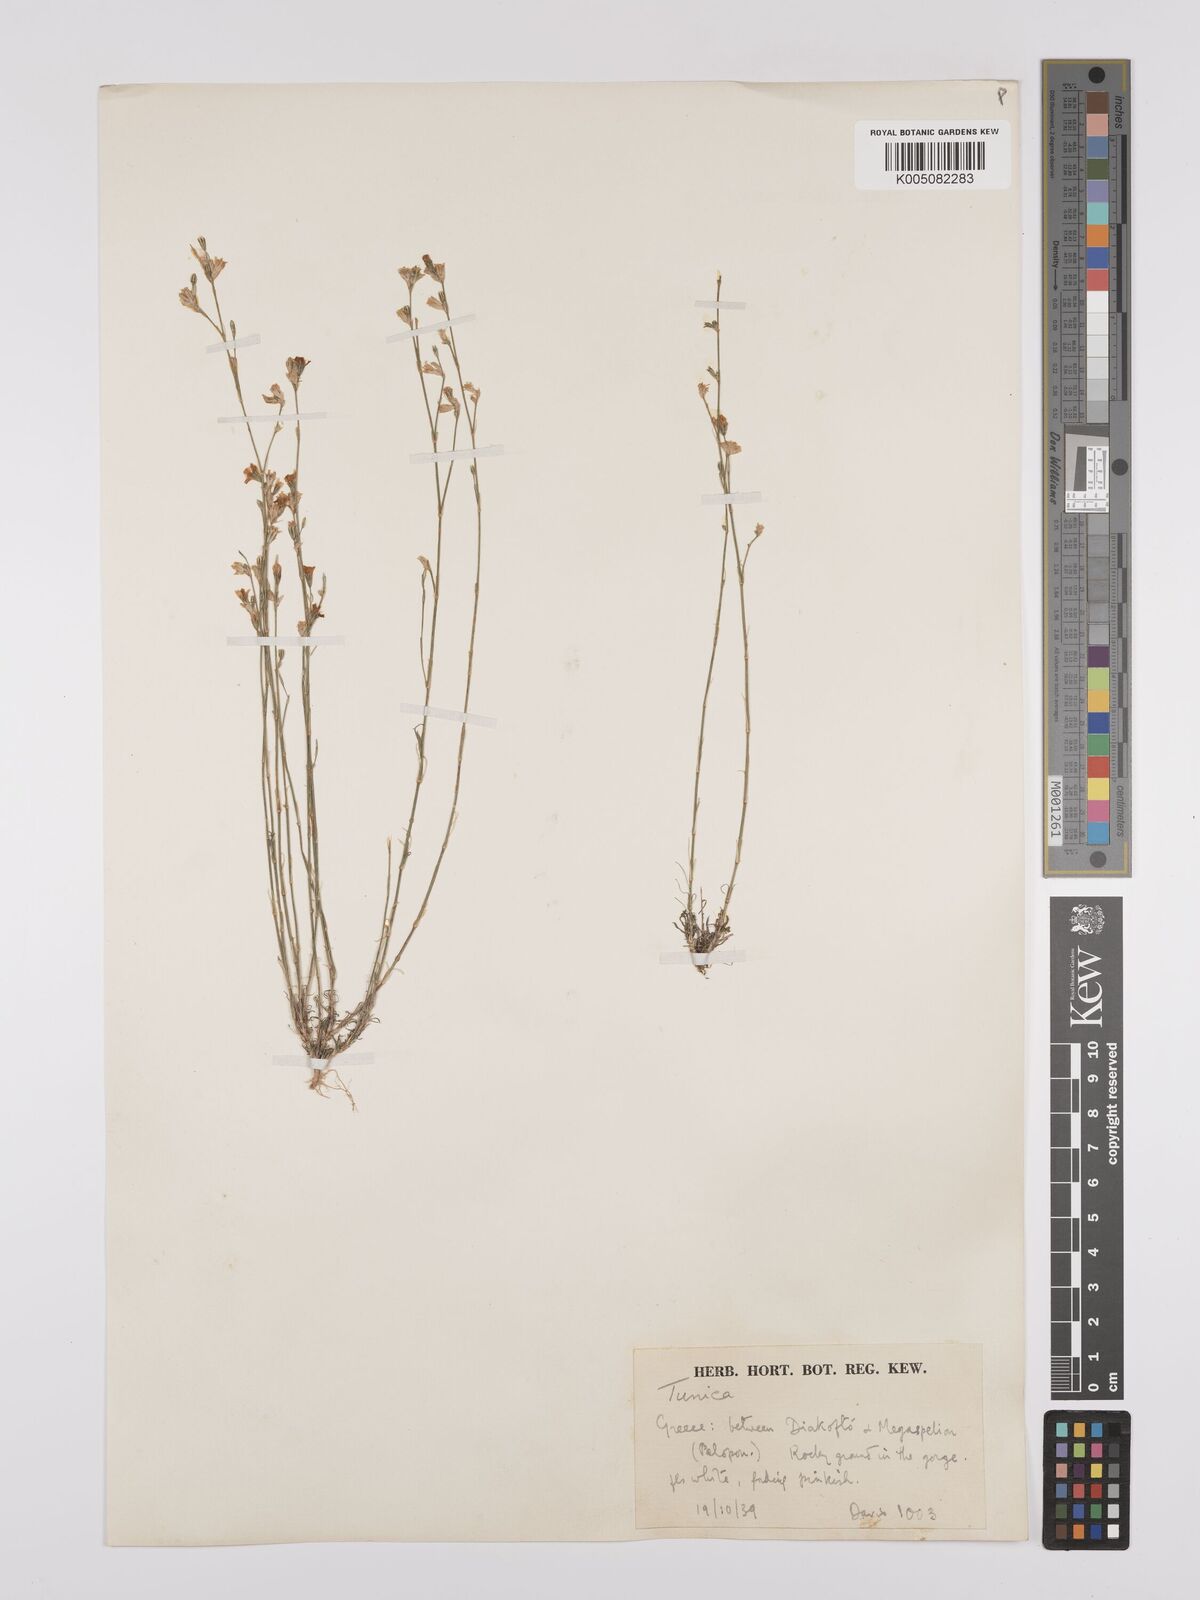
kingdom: Plantae
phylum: Tracheophyta
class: Magnoliopsida
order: Caryophyllales
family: Caryophyllaceae
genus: Petrorhagia
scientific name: Petrorhagia saxifraga
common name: Tunicflower
